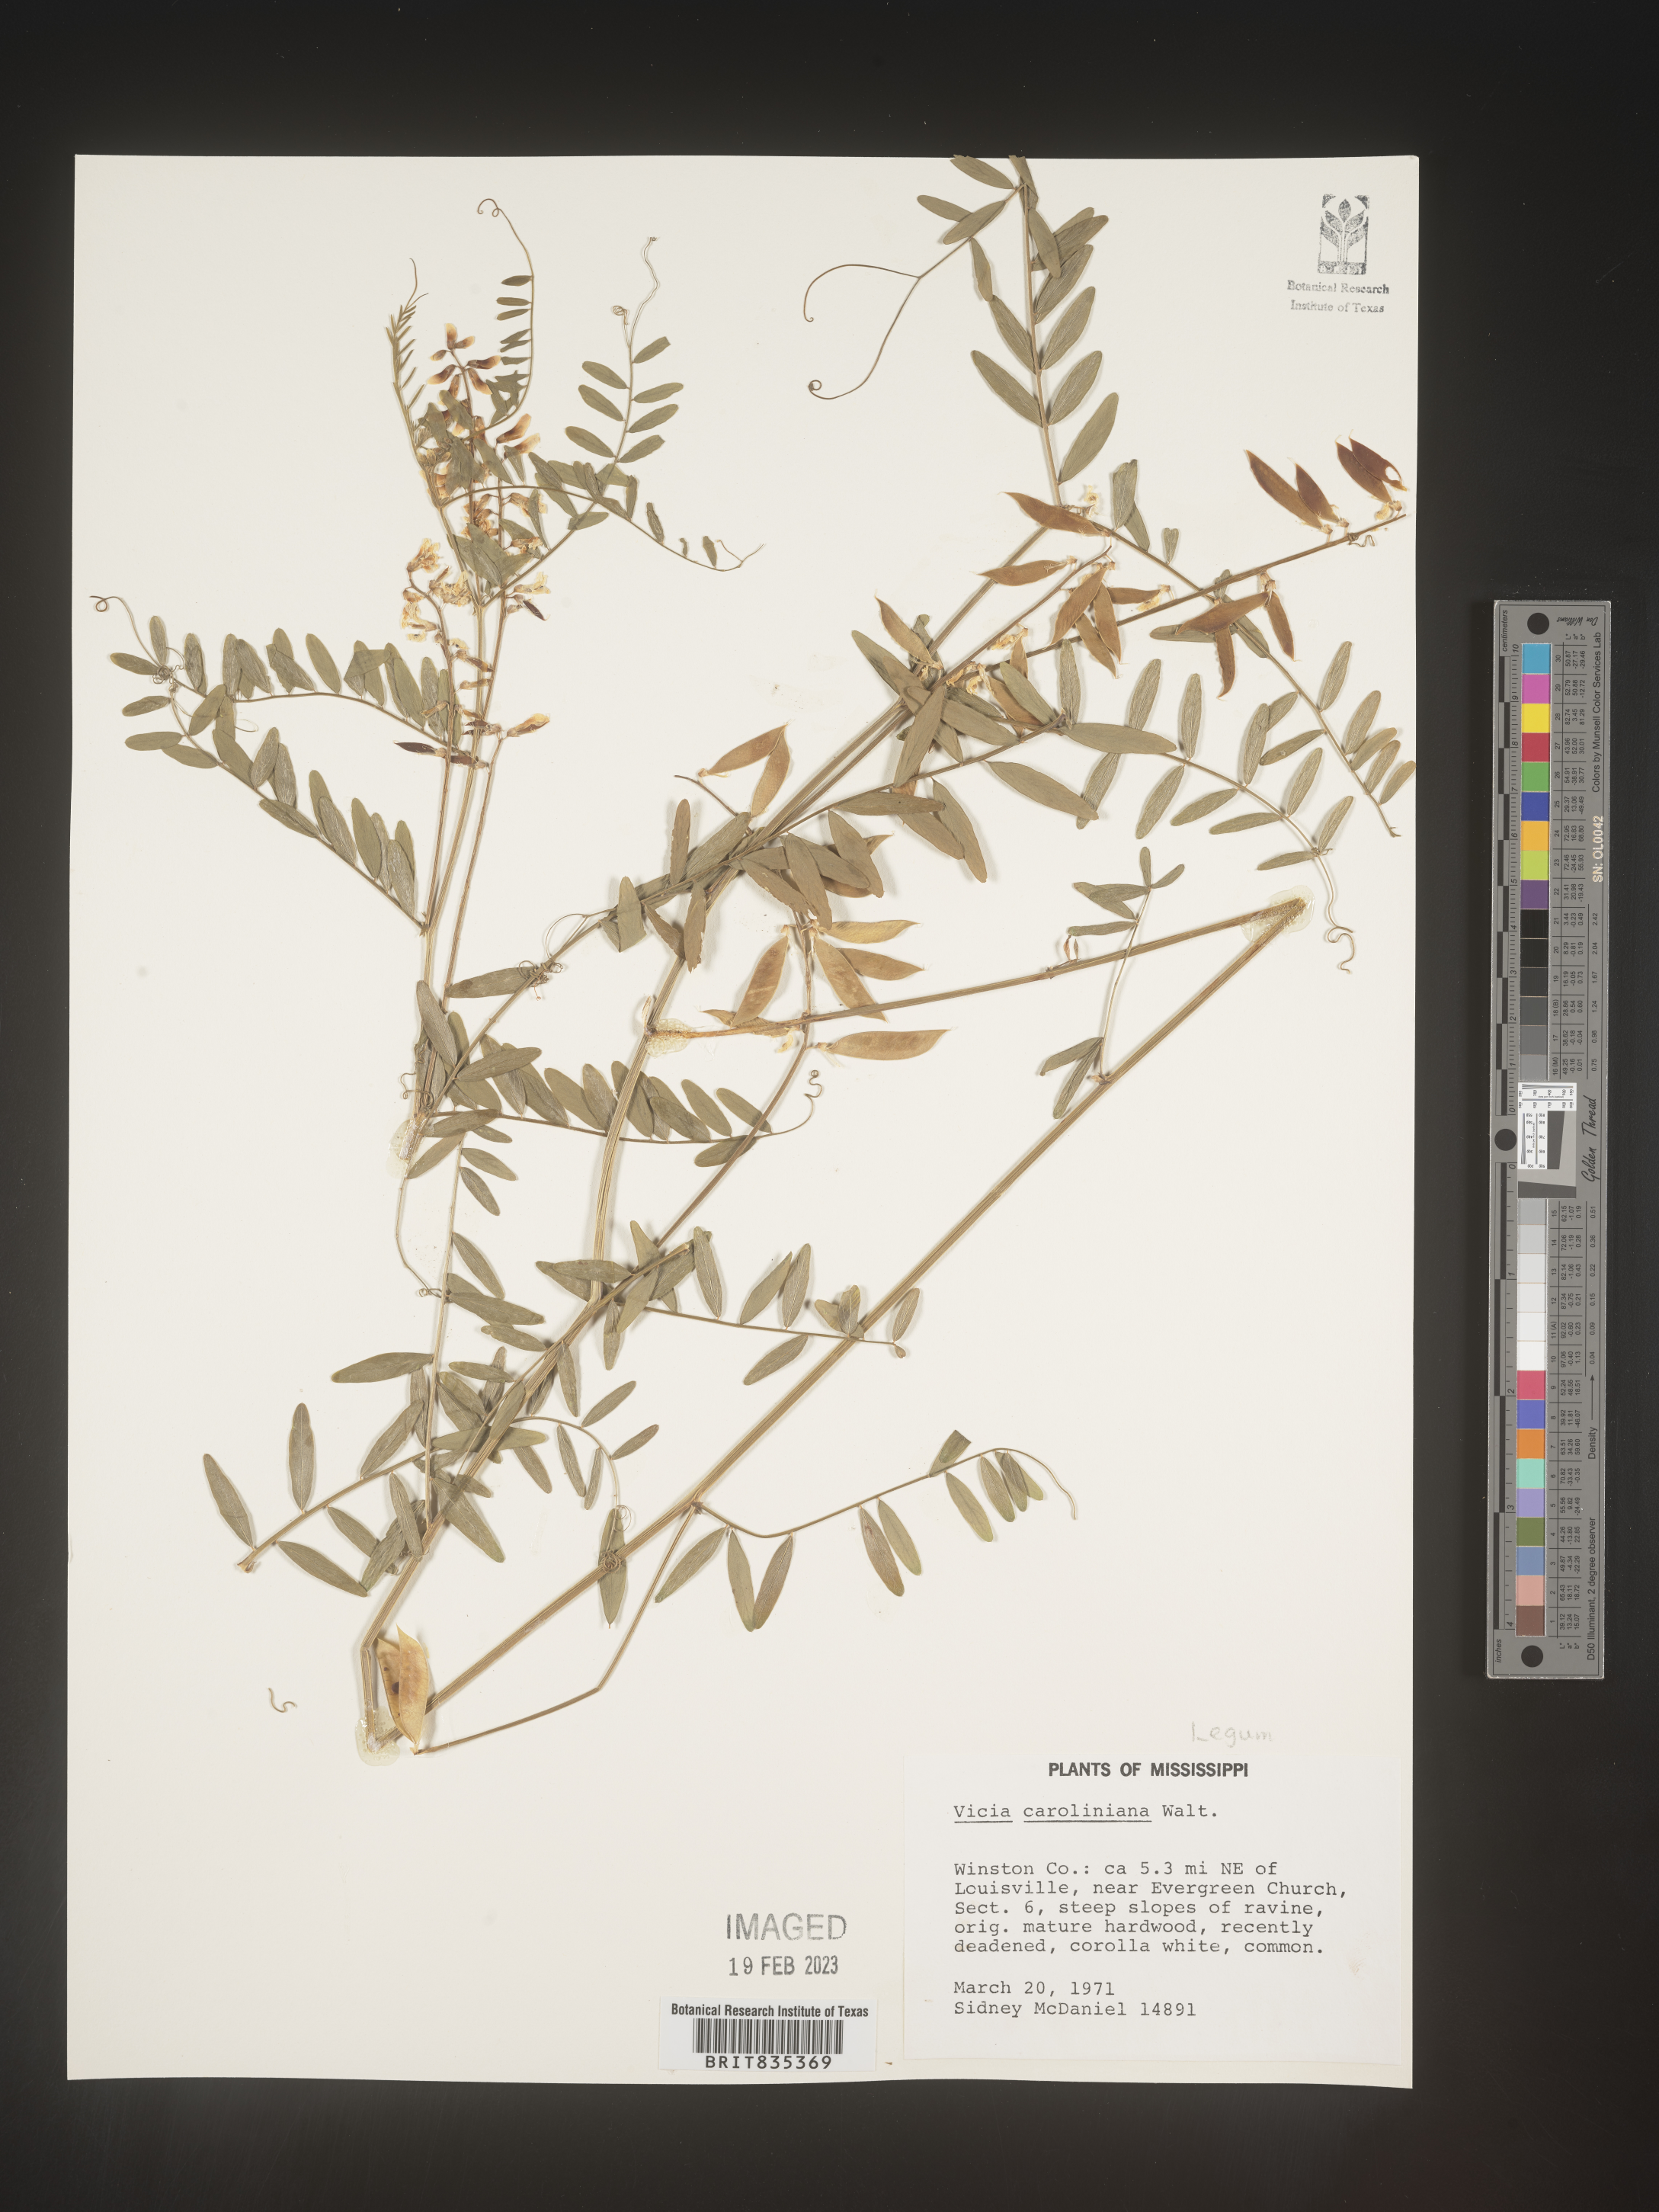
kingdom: Plantae
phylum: Tracheophyta
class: Magnoliopsida
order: Fabales
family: Fabaceae
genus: Vicia
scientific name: Vicia caroliniana
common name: Carolina vetch
